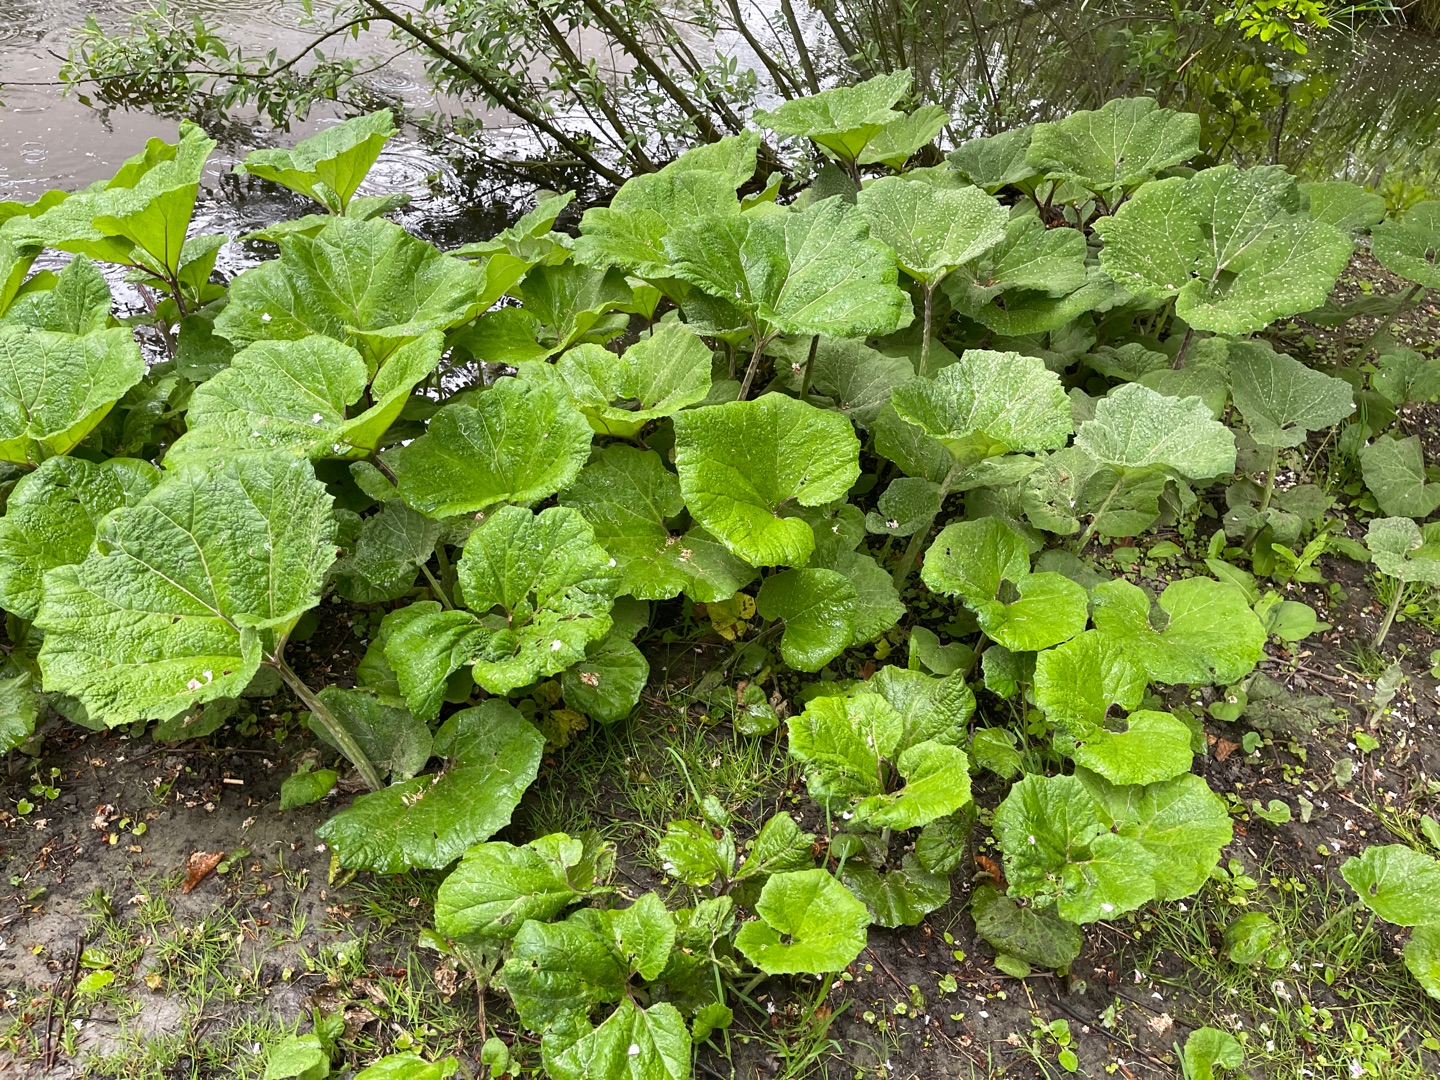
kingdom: Plantae
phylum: Tracheophyta
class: Magnoliopsida
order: Asterales
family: Asteraceae
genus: Petasites
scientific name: Petasites hybridus
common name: Rød hestehov
